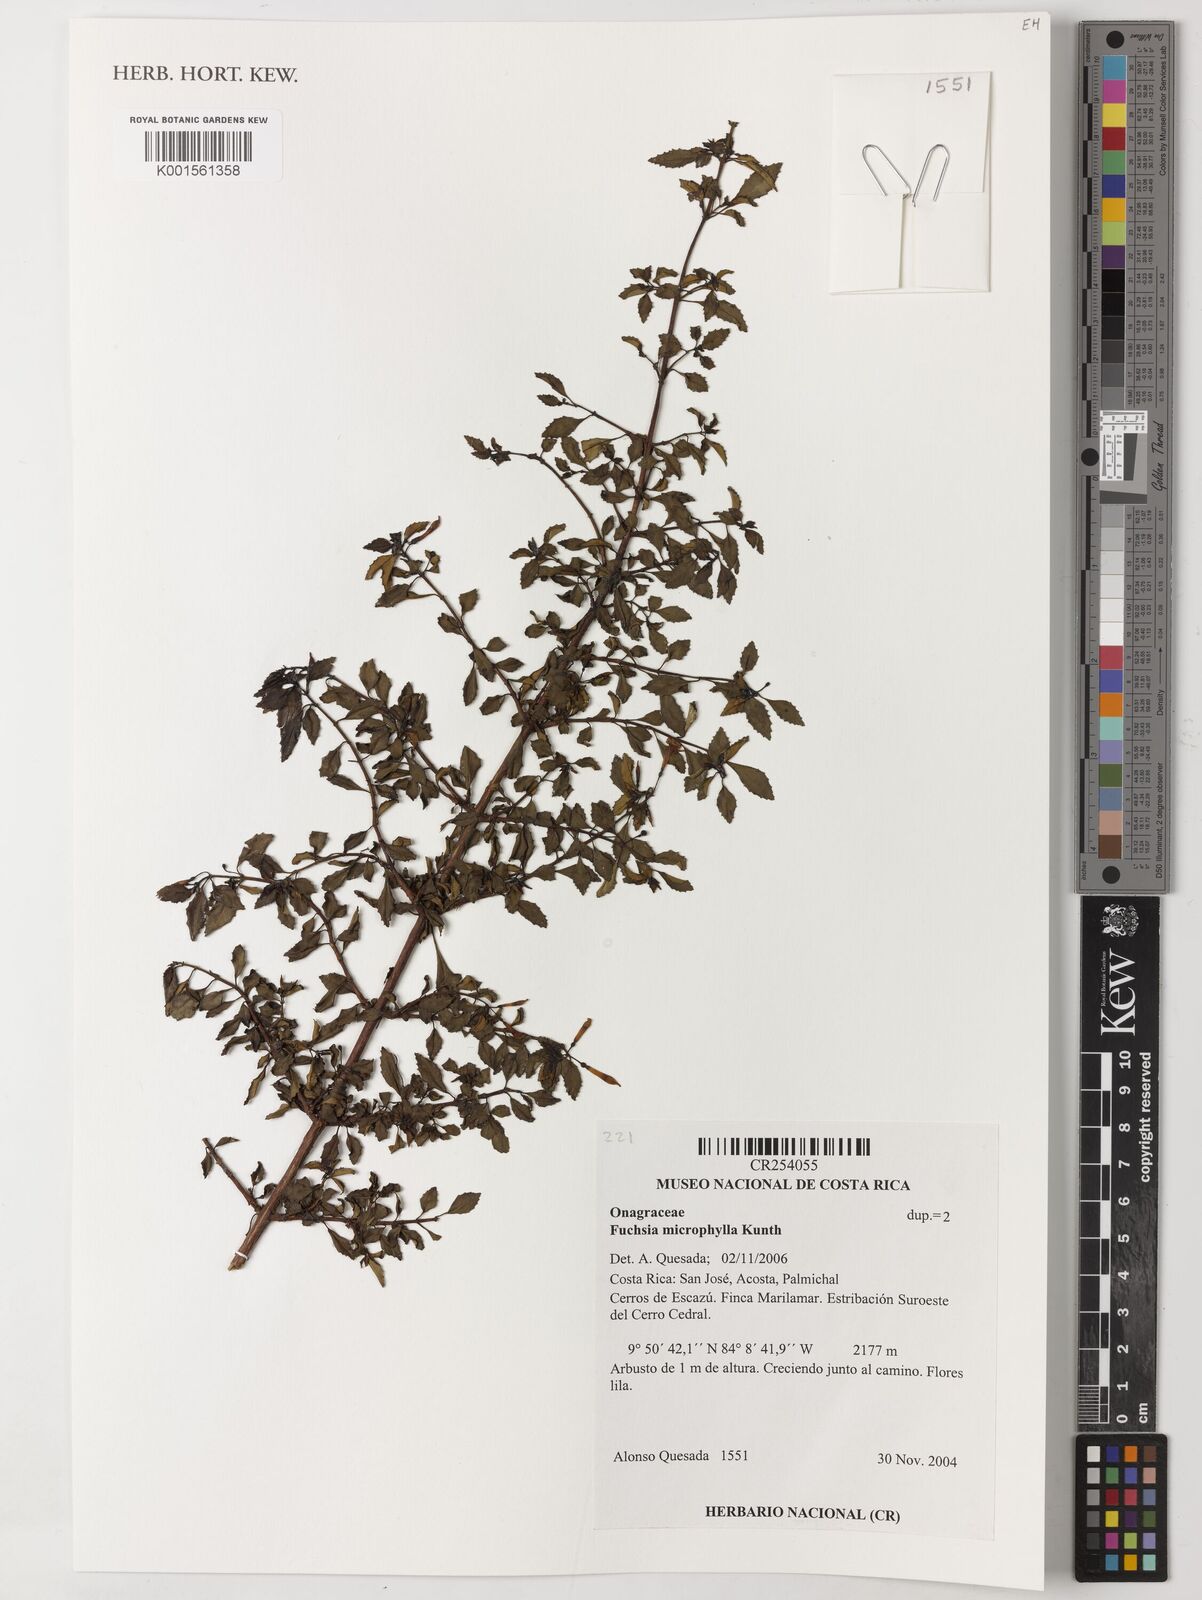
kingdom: Plantae
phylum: Tracheophyta
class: Magnoliopsida
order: Myrtales
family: Onagraceae
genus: Fuchsia
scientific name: Fuchsia microphylla
